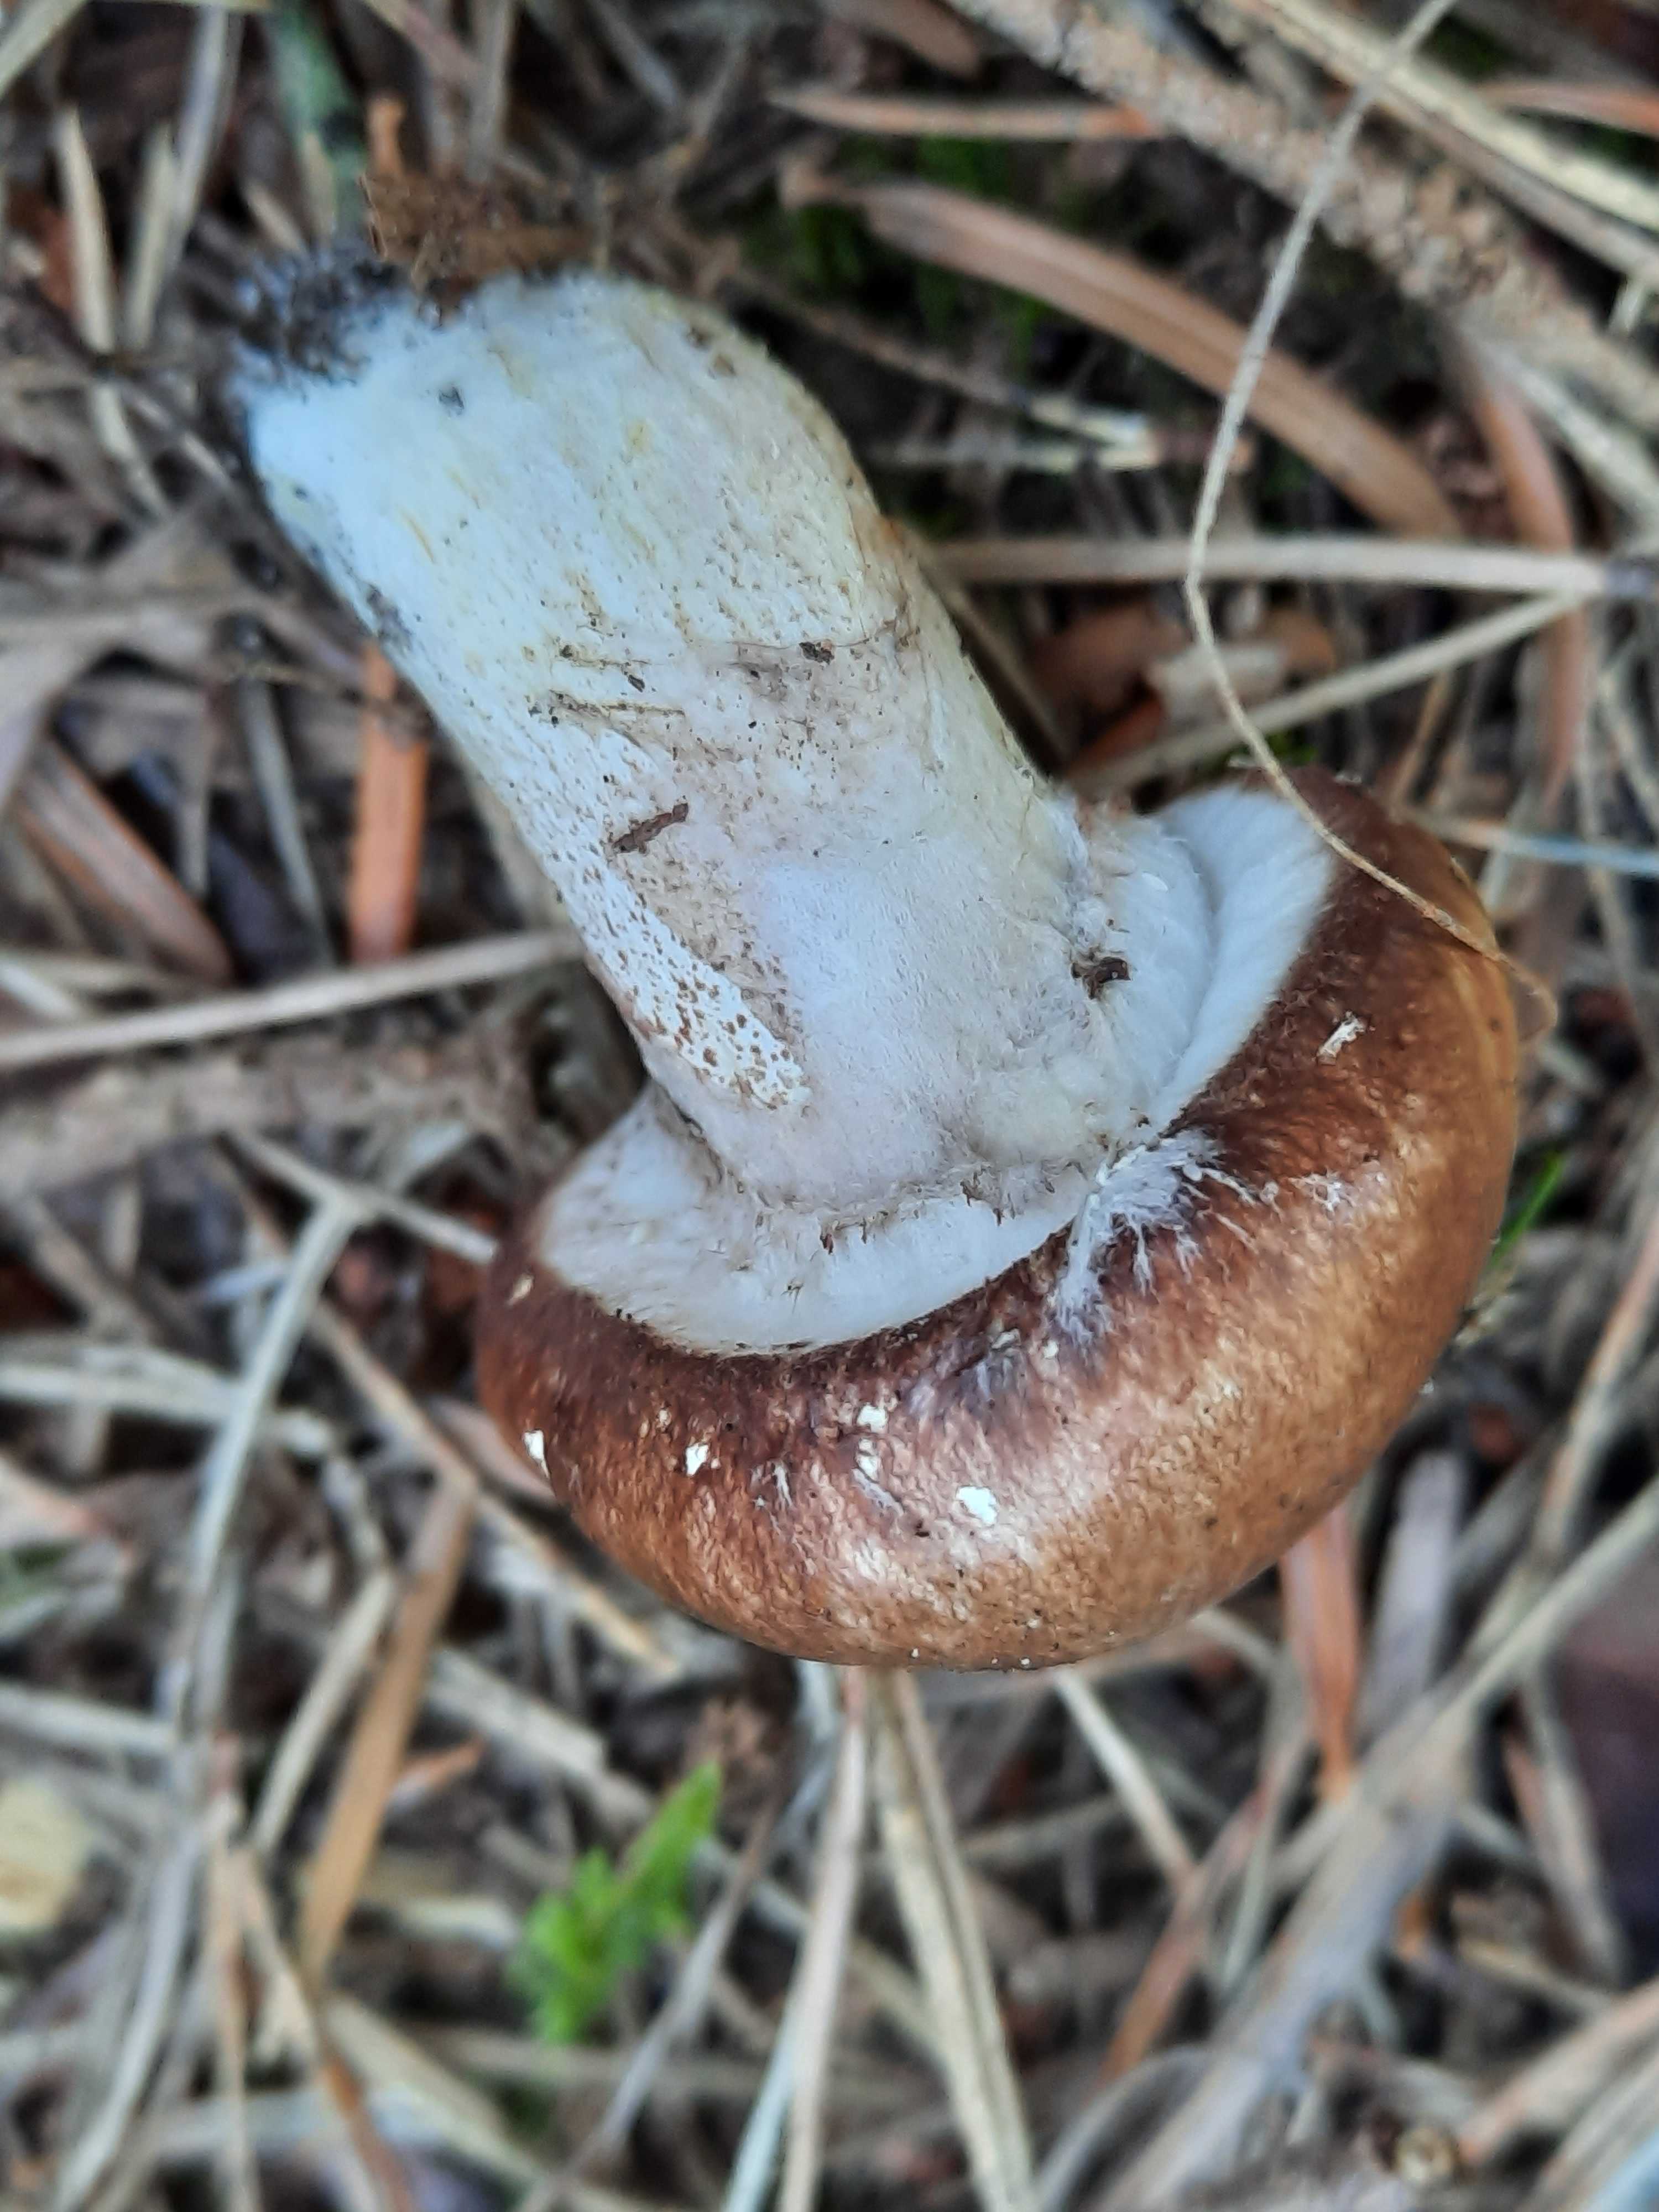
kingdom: Fungi
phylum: Basidiomycota
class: Agaricomycetes
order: Boletales
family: Suillaceae
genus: Suillus
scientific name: Suillus luteus
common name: brungul slimrørhat
